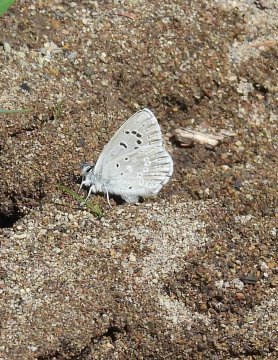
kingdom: Animalia
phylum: Arthropoda
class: Insecta
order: Lepidoptera
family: Lycaenidae
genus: Icaricia
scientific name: Icaricia icarioides
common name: Boisduval's Blue
